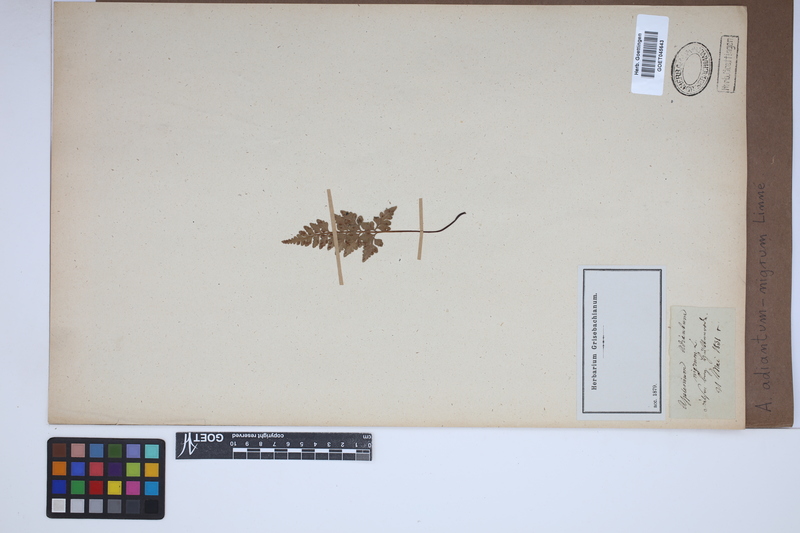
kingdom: Plantae
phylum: Tracheophyta
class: Polypodiopsida
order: Polypodiales
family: Aspleniaceae
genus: Asplenium
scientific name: Asplenium adiantum-nigrum
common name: Black spleenwort
